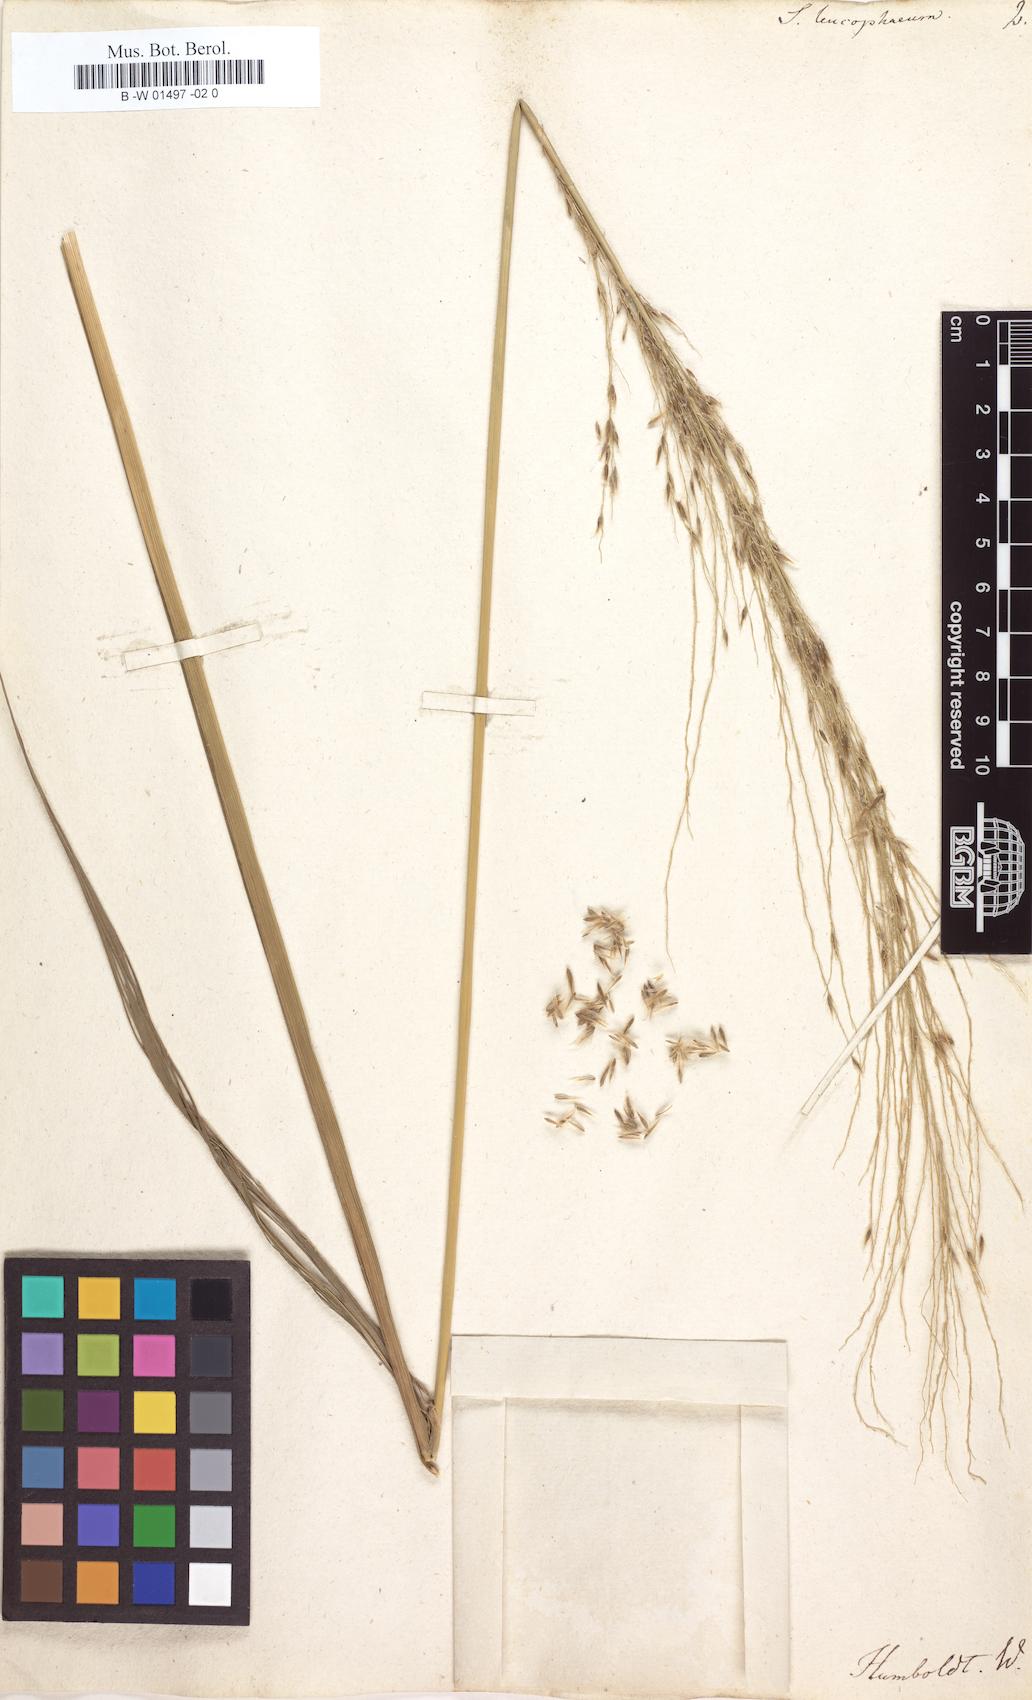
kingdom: Plantae
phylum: Tracheophyta
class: Liliopsida
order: Poales
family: Poaceae
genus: Saccharum
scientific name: Saccharum
